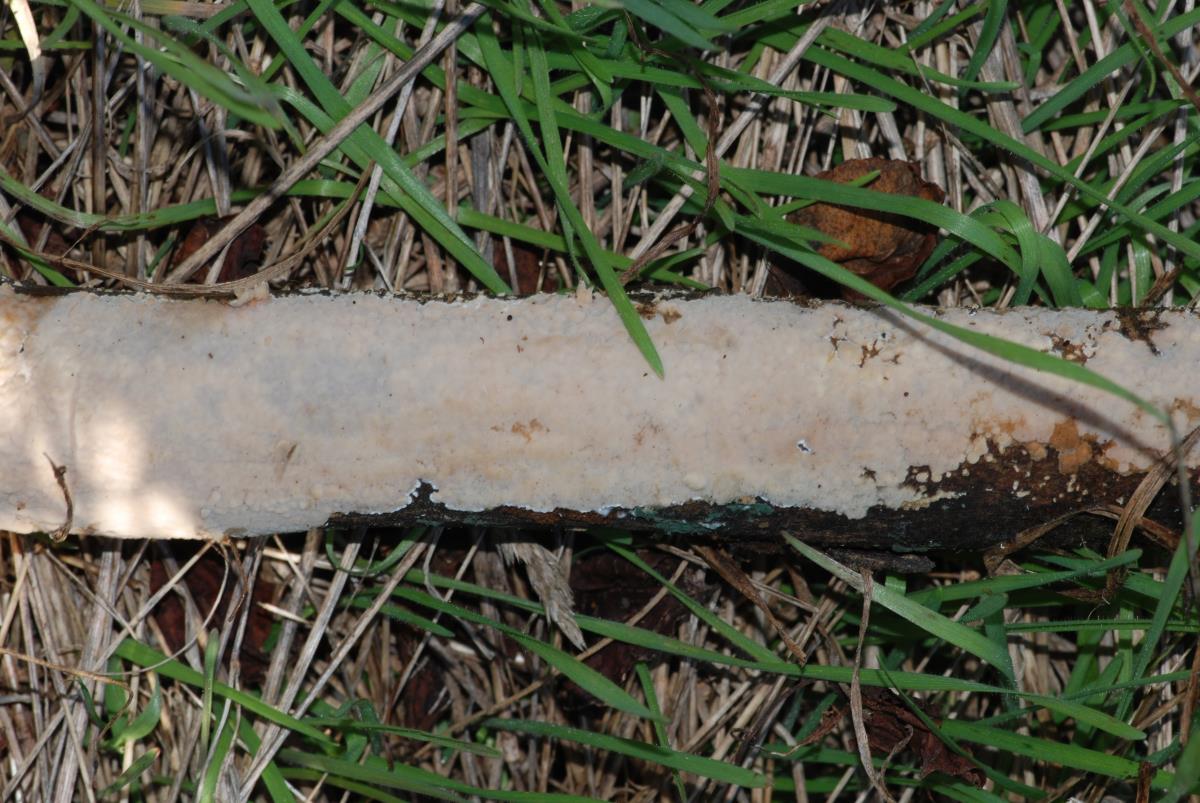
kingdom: Fungi
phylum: Basidiomycota
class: Agaricomycetes
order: Polyporales
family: Polyporaceae
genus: Lopharia
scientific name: Lopharia
